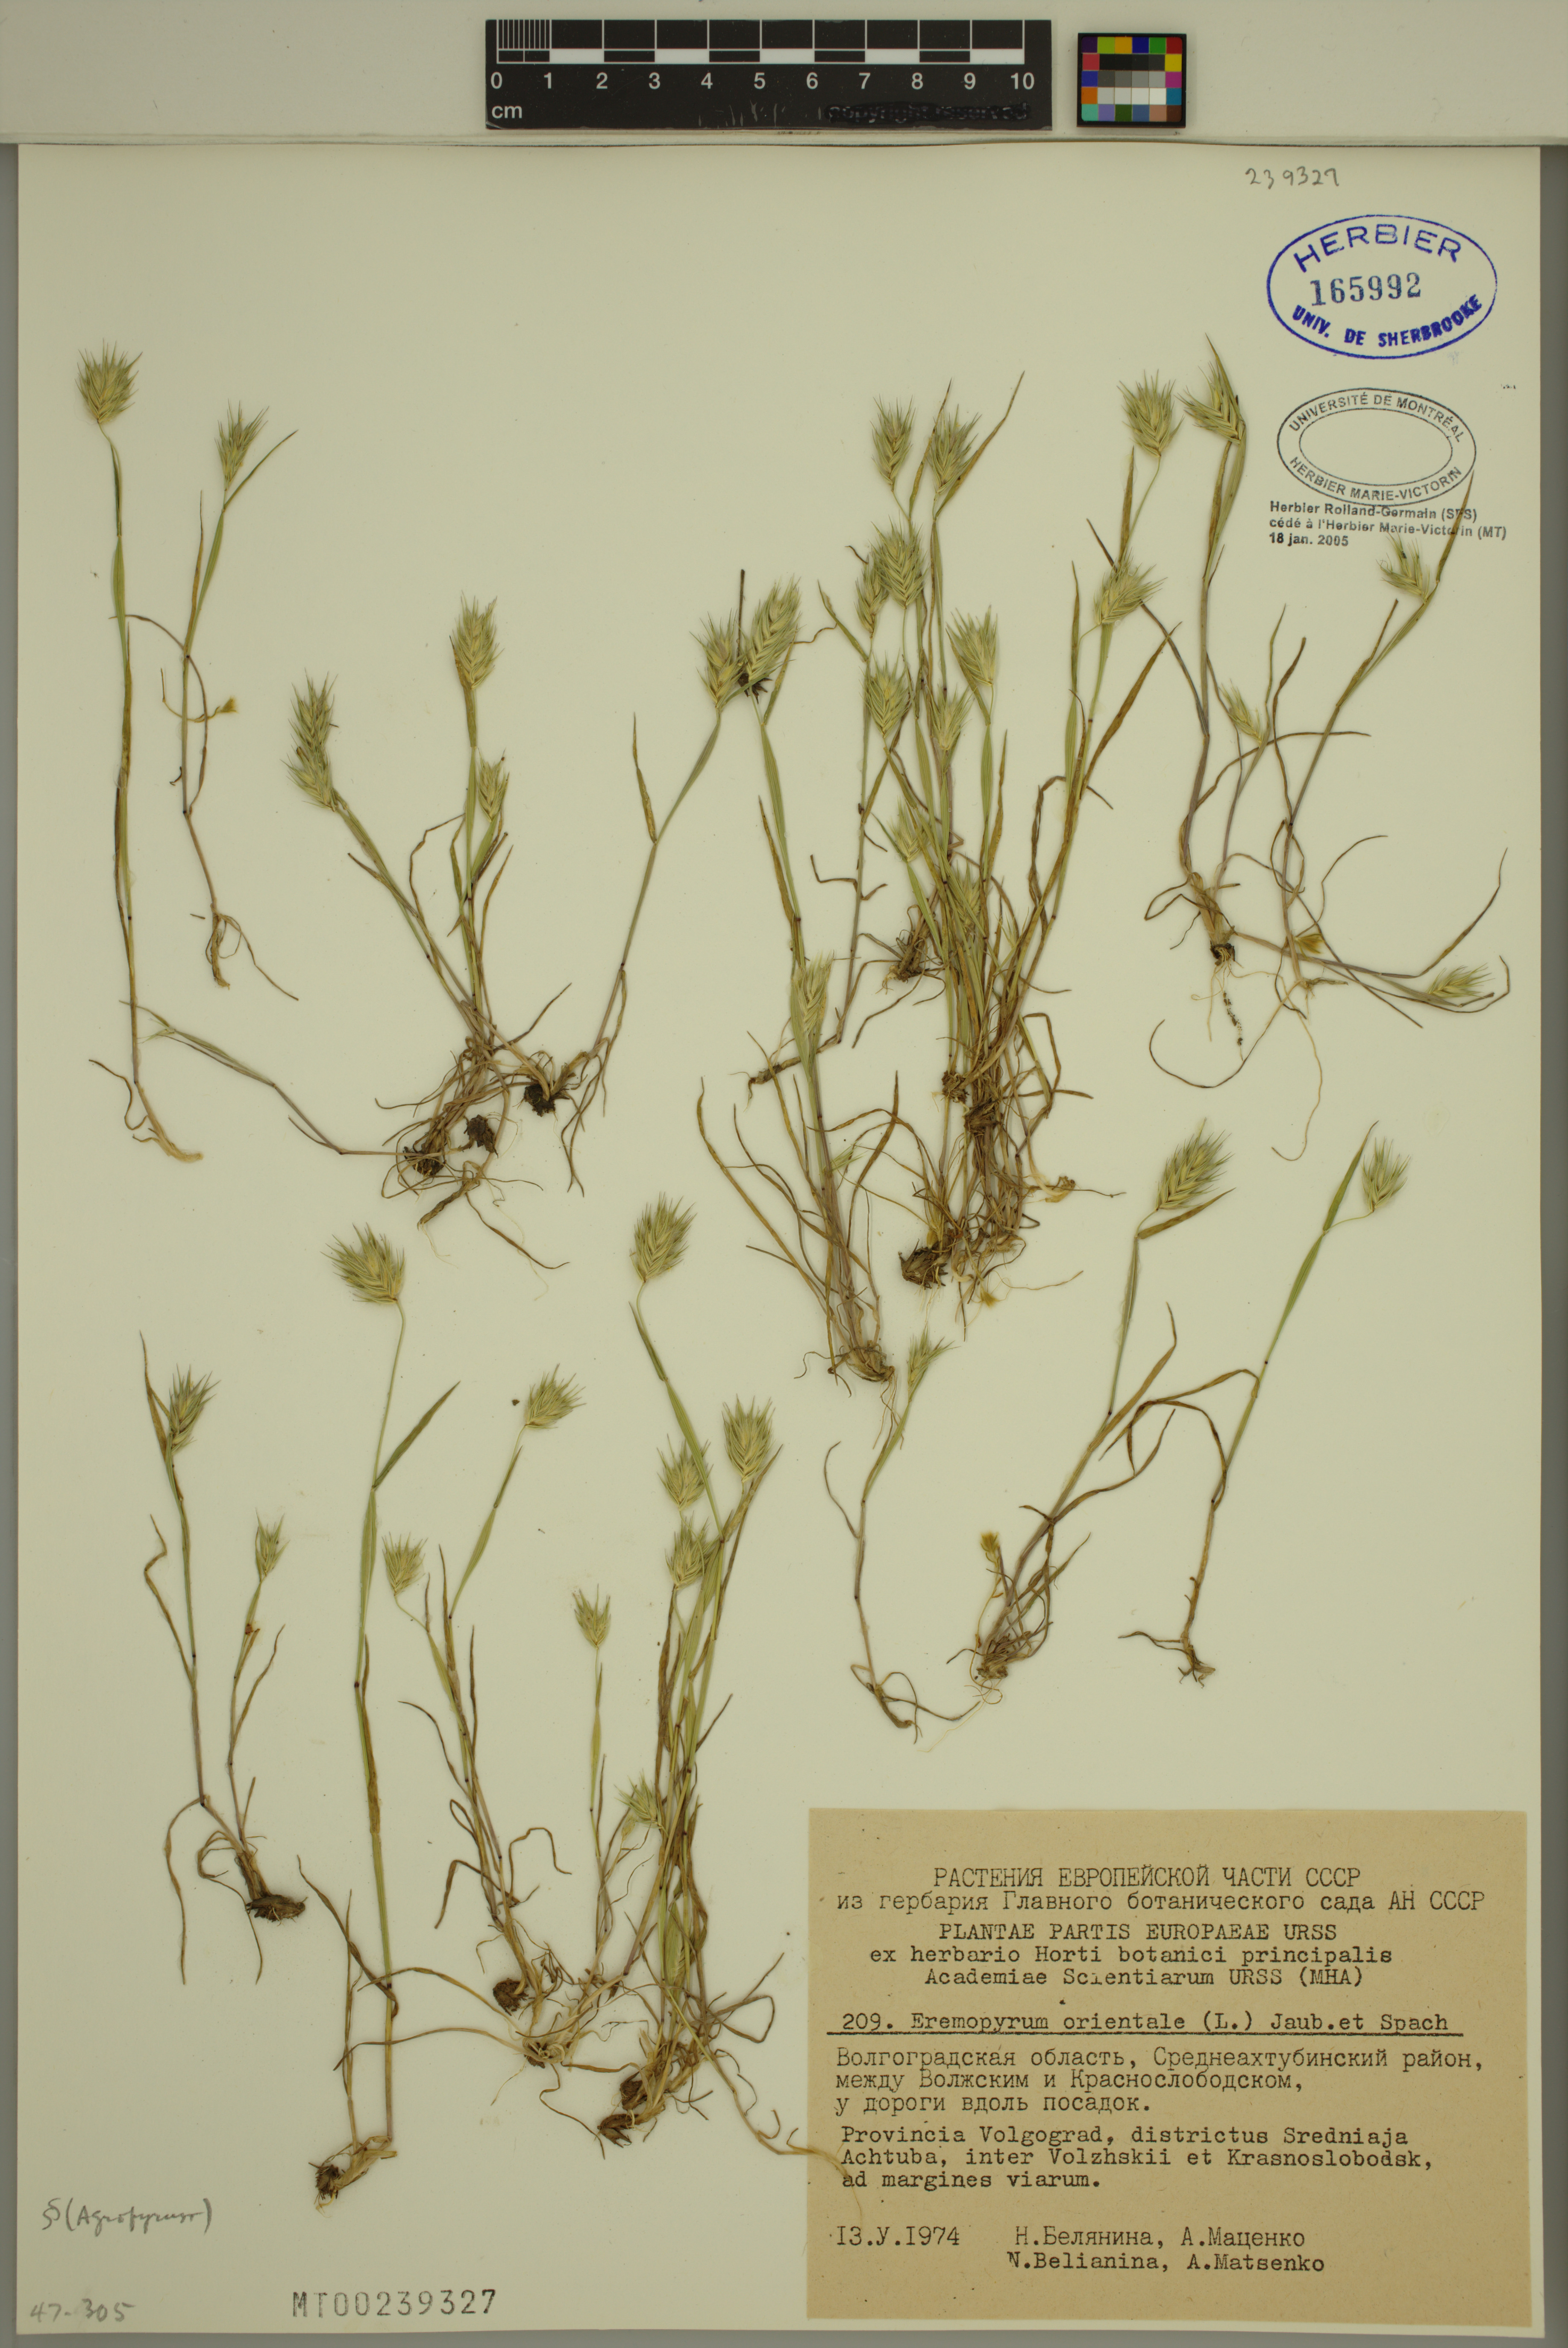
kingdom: Plantae
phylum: Tracheophyta
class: Liliopsida
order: Poales
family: Poaceae
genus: Eremopyrum
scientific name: Eremopyrum orientale
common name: Oriental false wheatgrass
